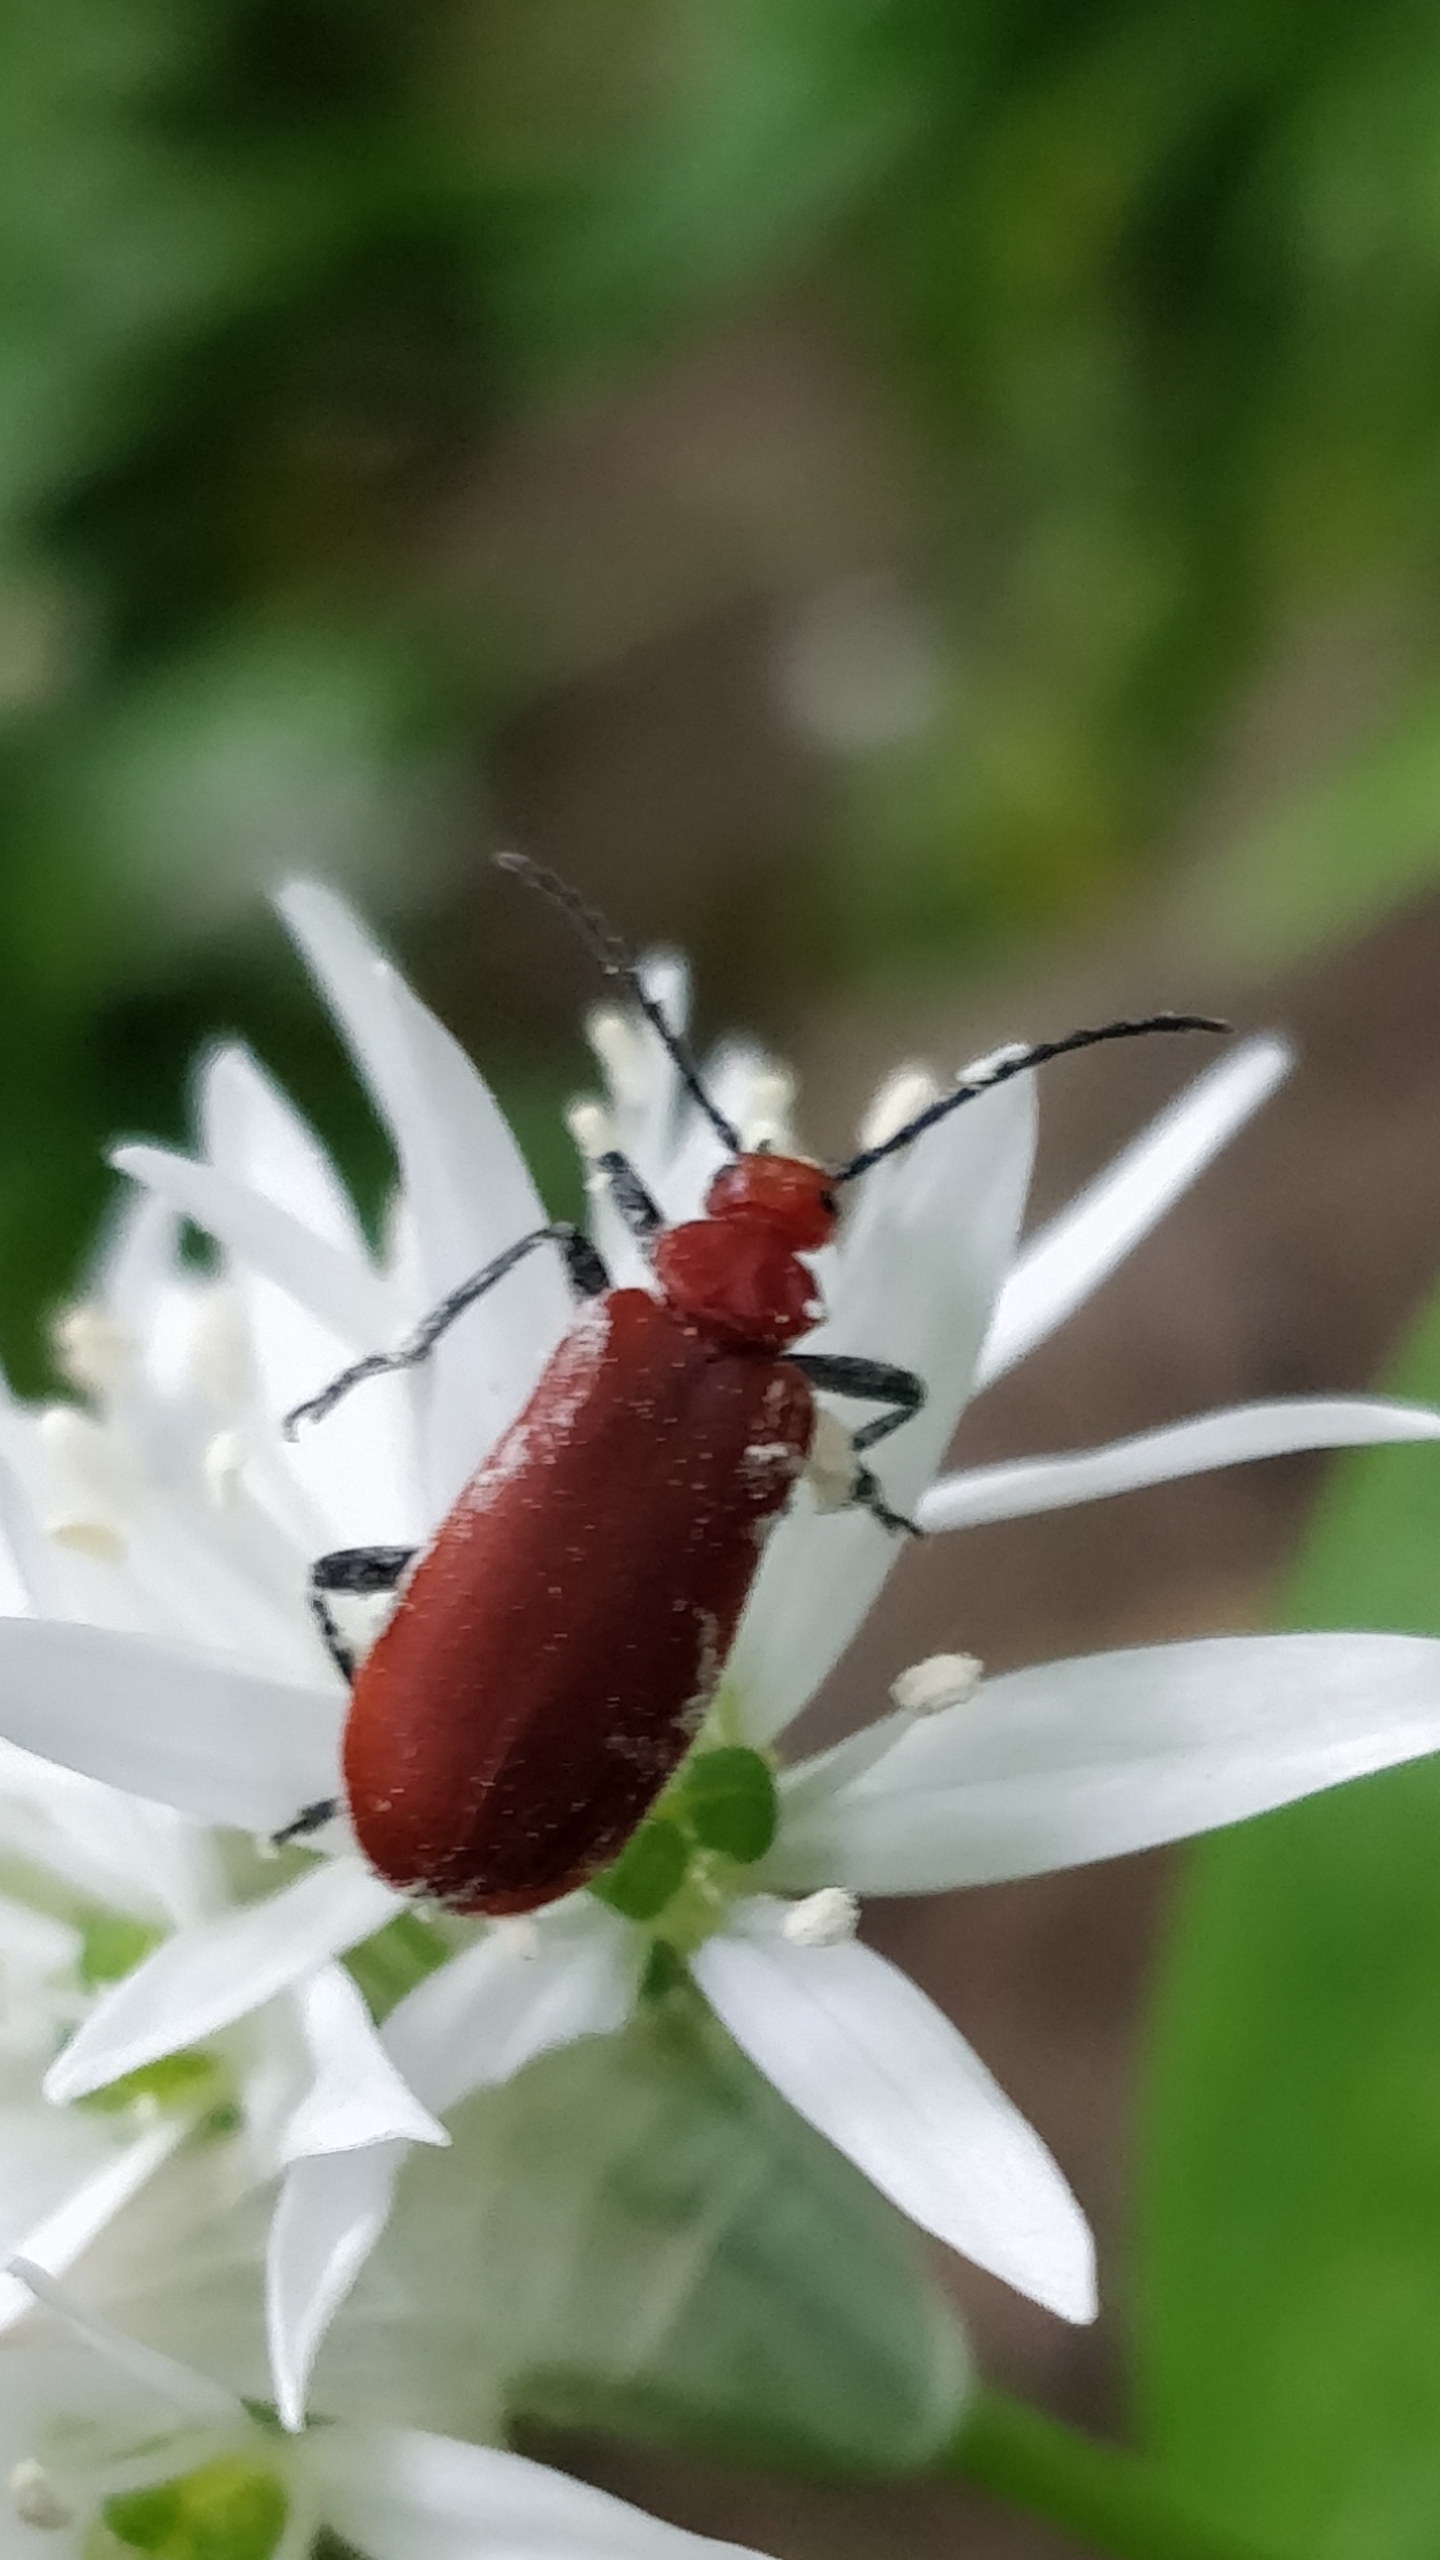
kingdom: Animalia
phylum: Arthropoda
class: Insecta
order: Coleoptera
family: Pyrochroidae
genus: Pyrochroa
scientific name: Pyrochroa serraticornis
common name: Rødhovedet kardinalbille
